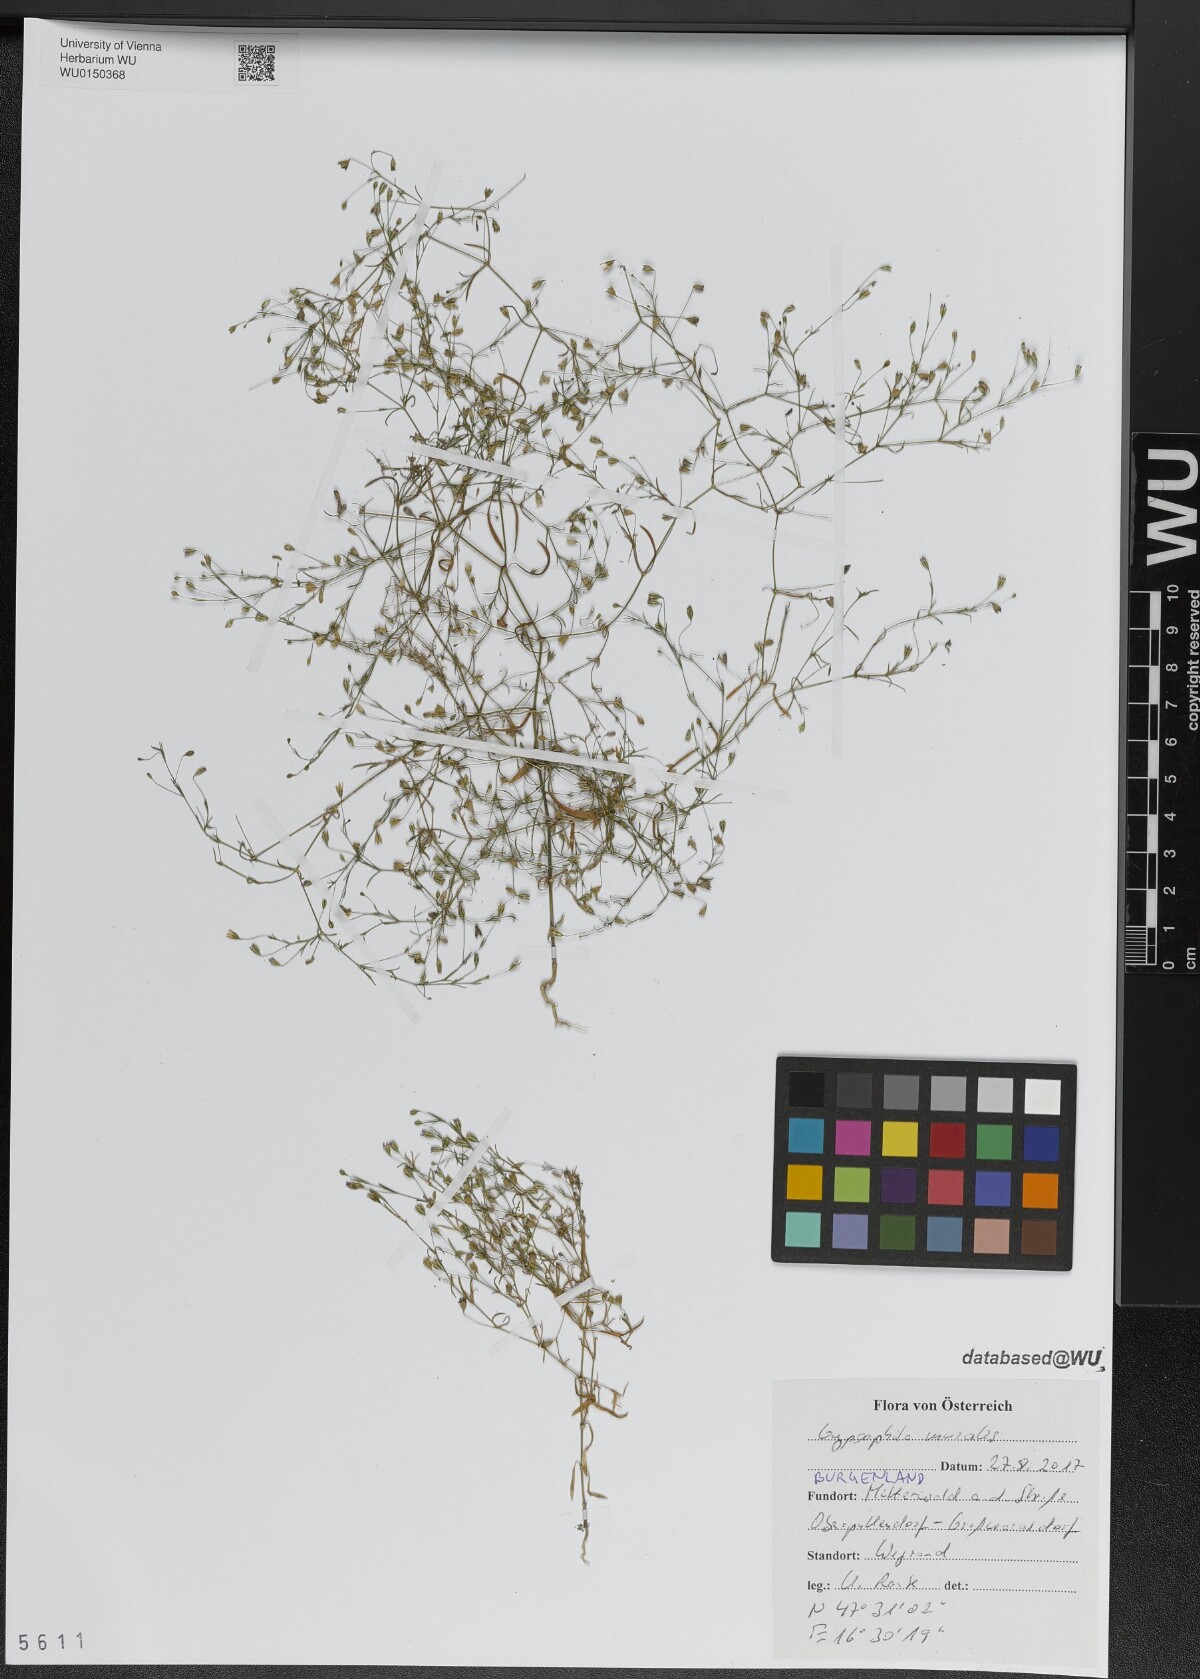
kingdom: Plantae
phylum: Tracheophyta
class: Magnoliopsida
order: Caryophyllales
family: Caryophyllaceae
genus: Psammophiliella
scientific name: Psammophiliella muralis
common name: Cushion baby's-breath
